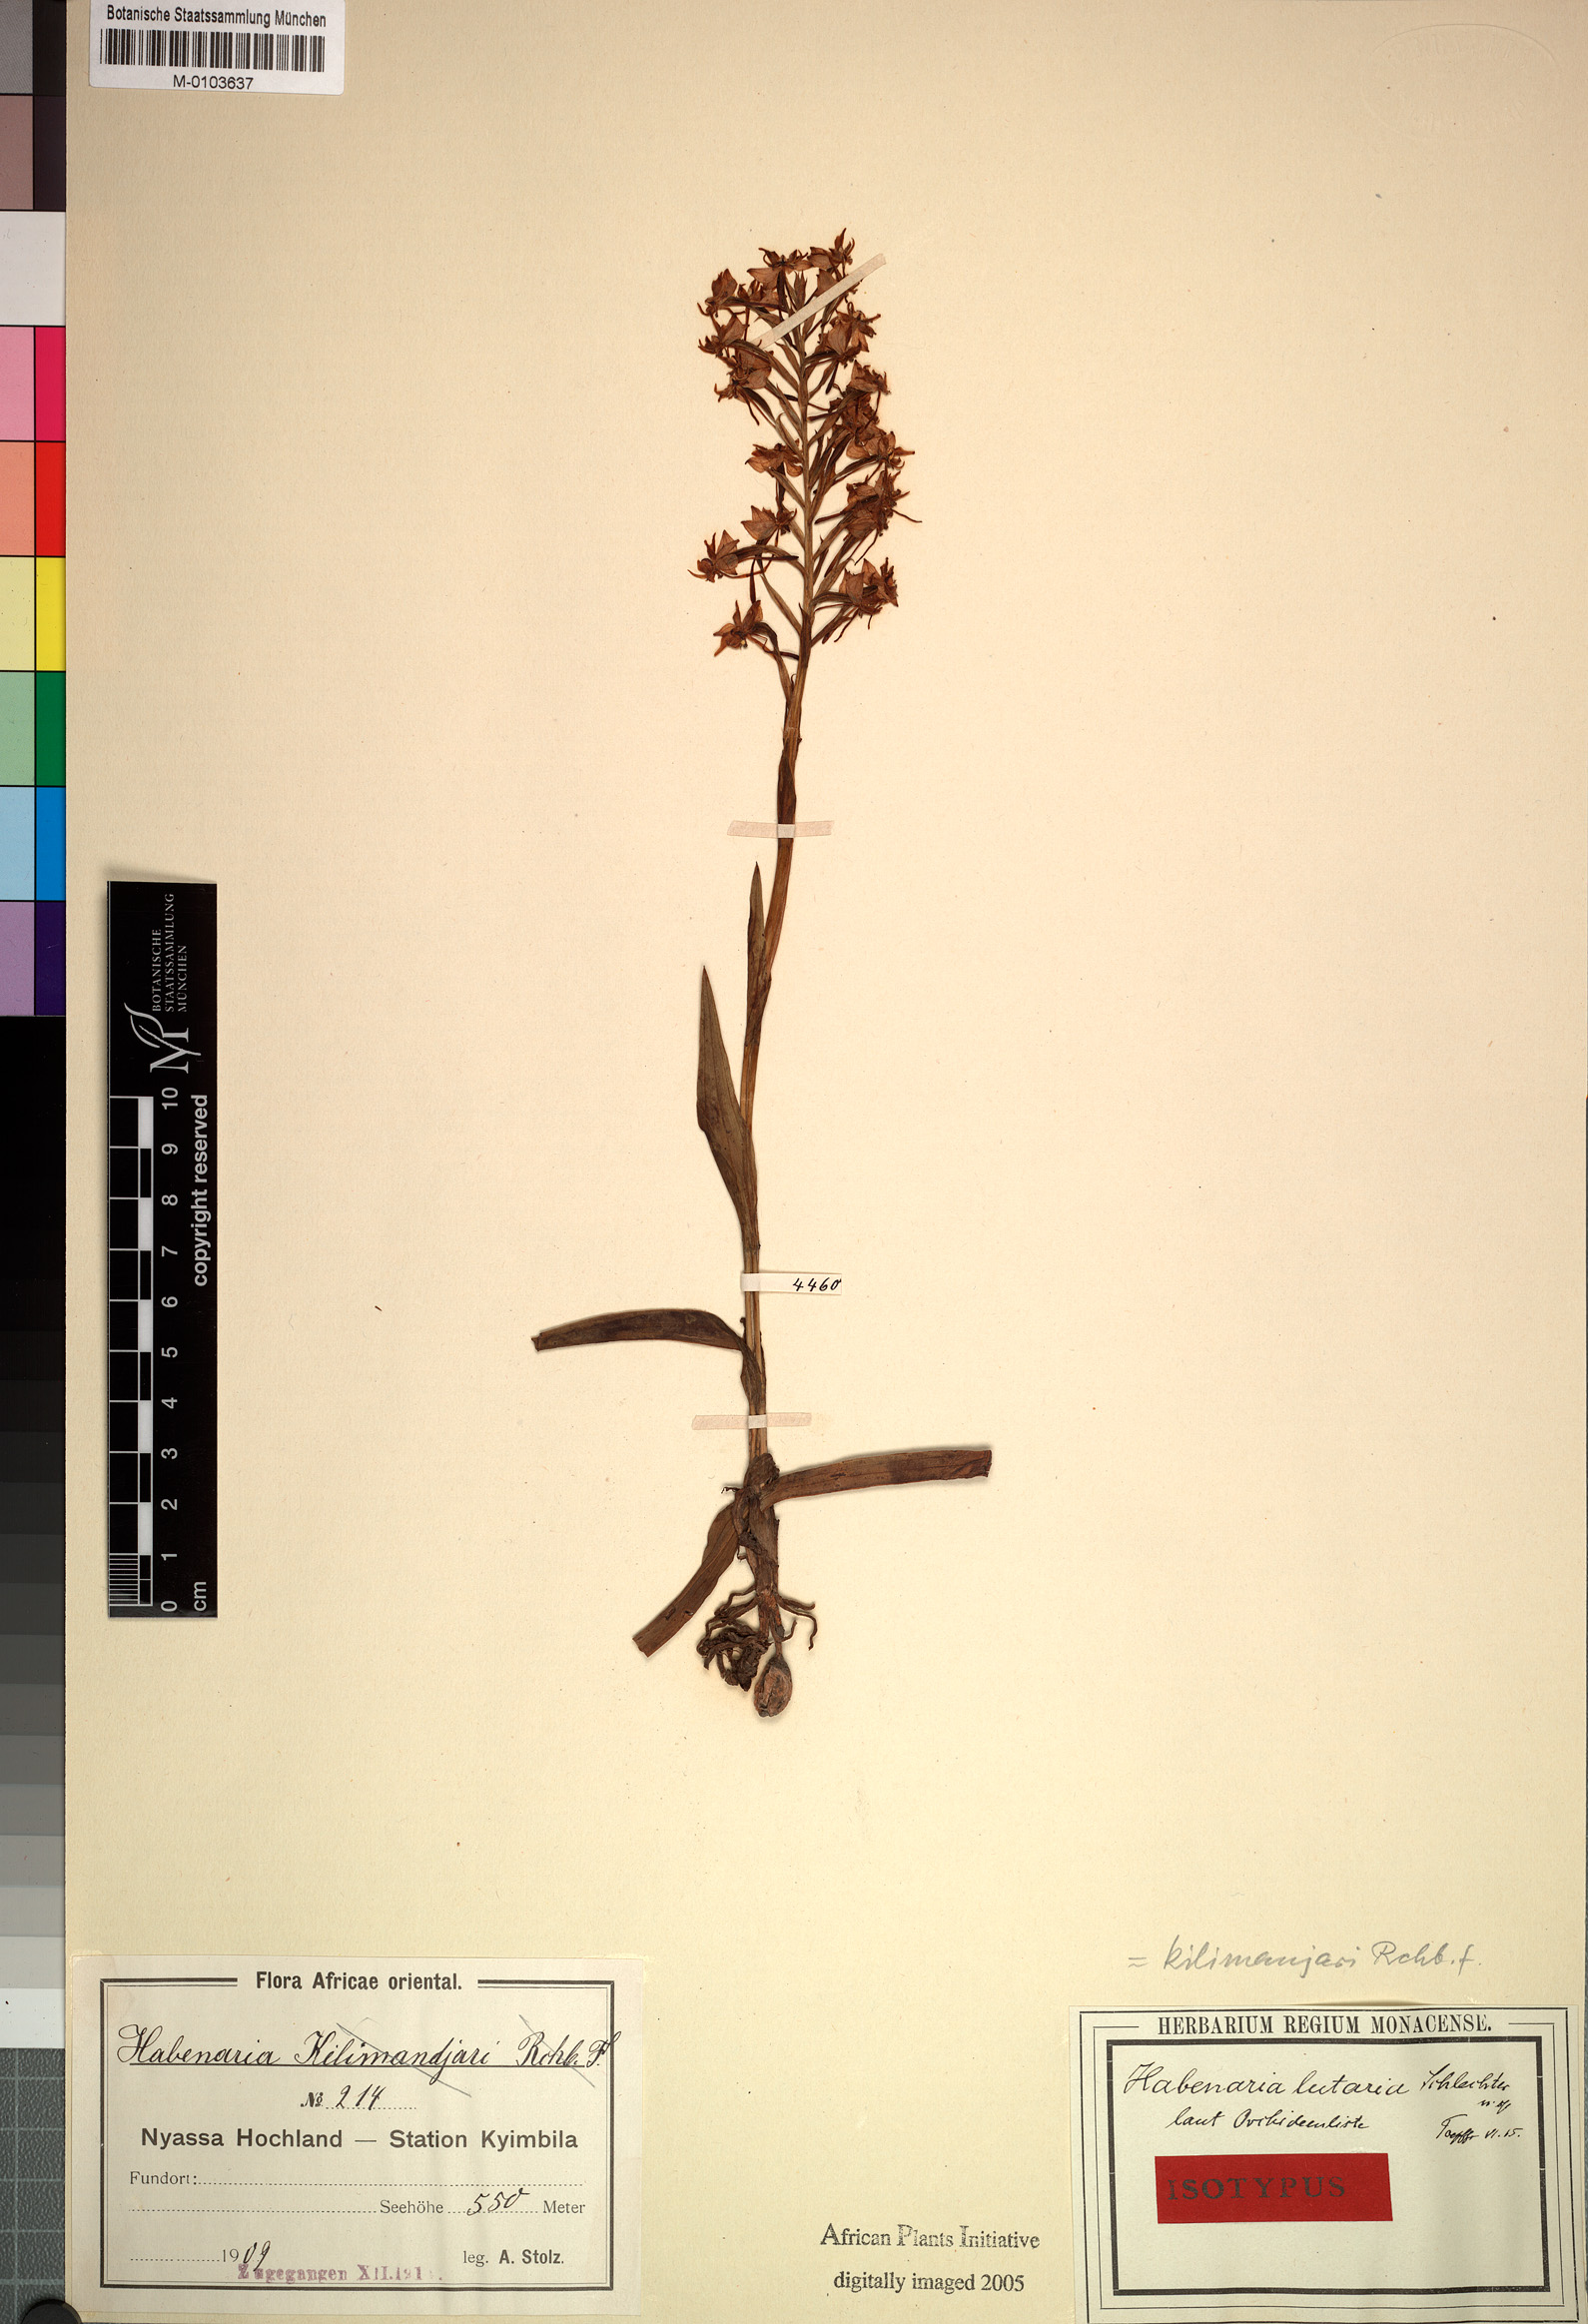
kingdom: Plantae
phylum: Tracheophyta
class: Liliopsida
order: Asparagales
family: Orchidaceae
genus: Habenaria
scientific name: Habenaria kilimanjari
